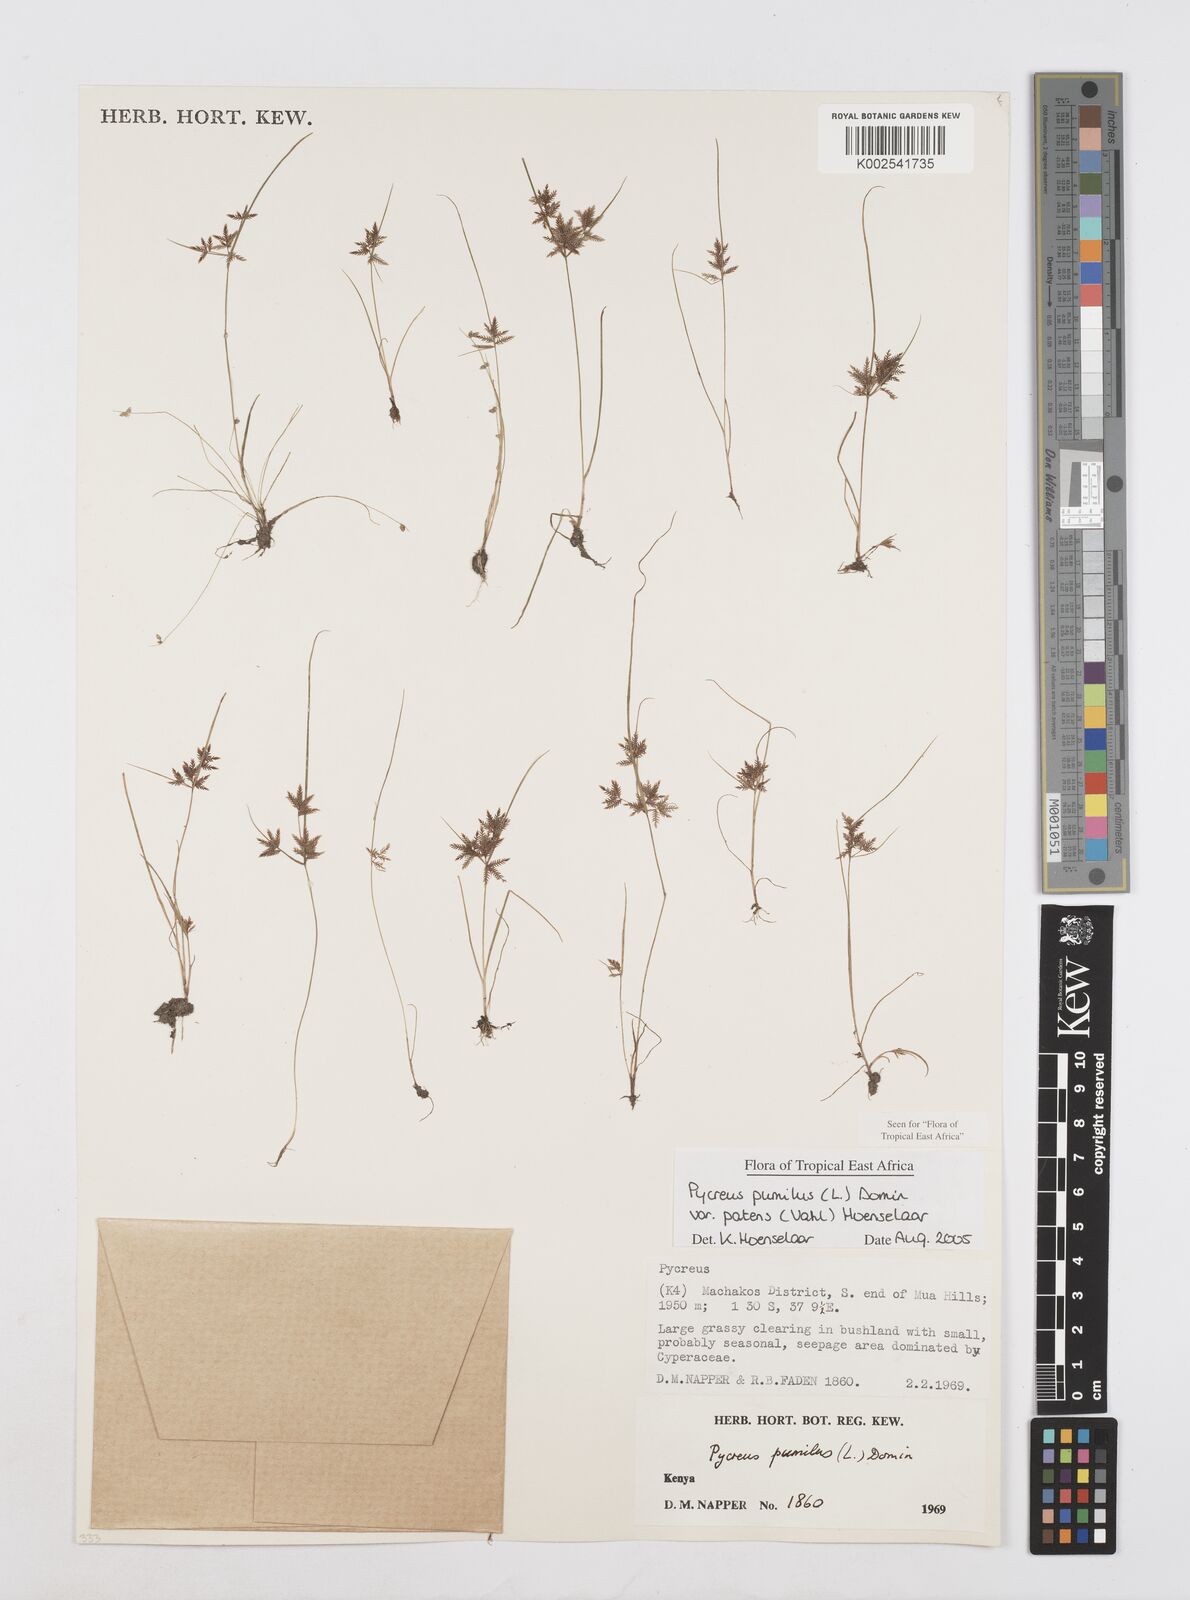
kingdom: Plantae
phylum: Tracheophyta
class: Liliopsida
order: Poales
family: Cyperaceae
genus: Cyperus
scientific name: Cyperus pumilus
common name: Low flatsedge
